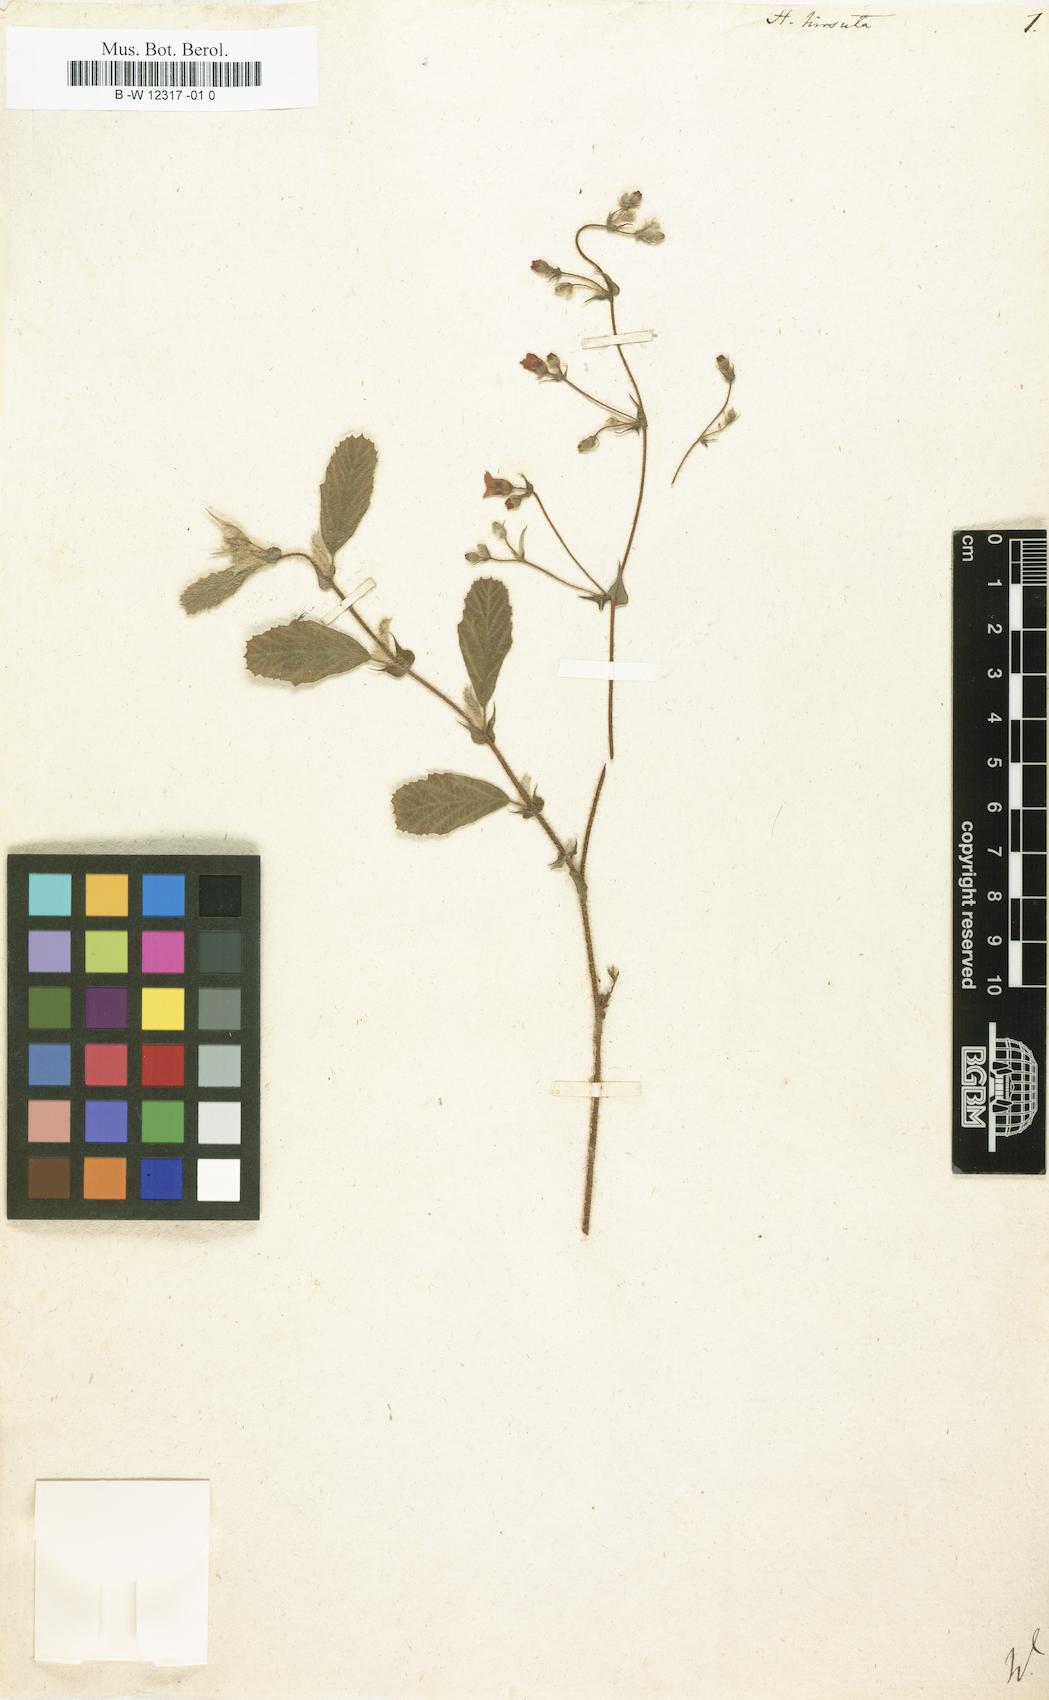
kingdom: Plantae
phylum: Tracheophyta
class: Magnoliopsida
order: Malvales
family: Malvaceae
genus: Hermannia
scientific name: Hermannia
